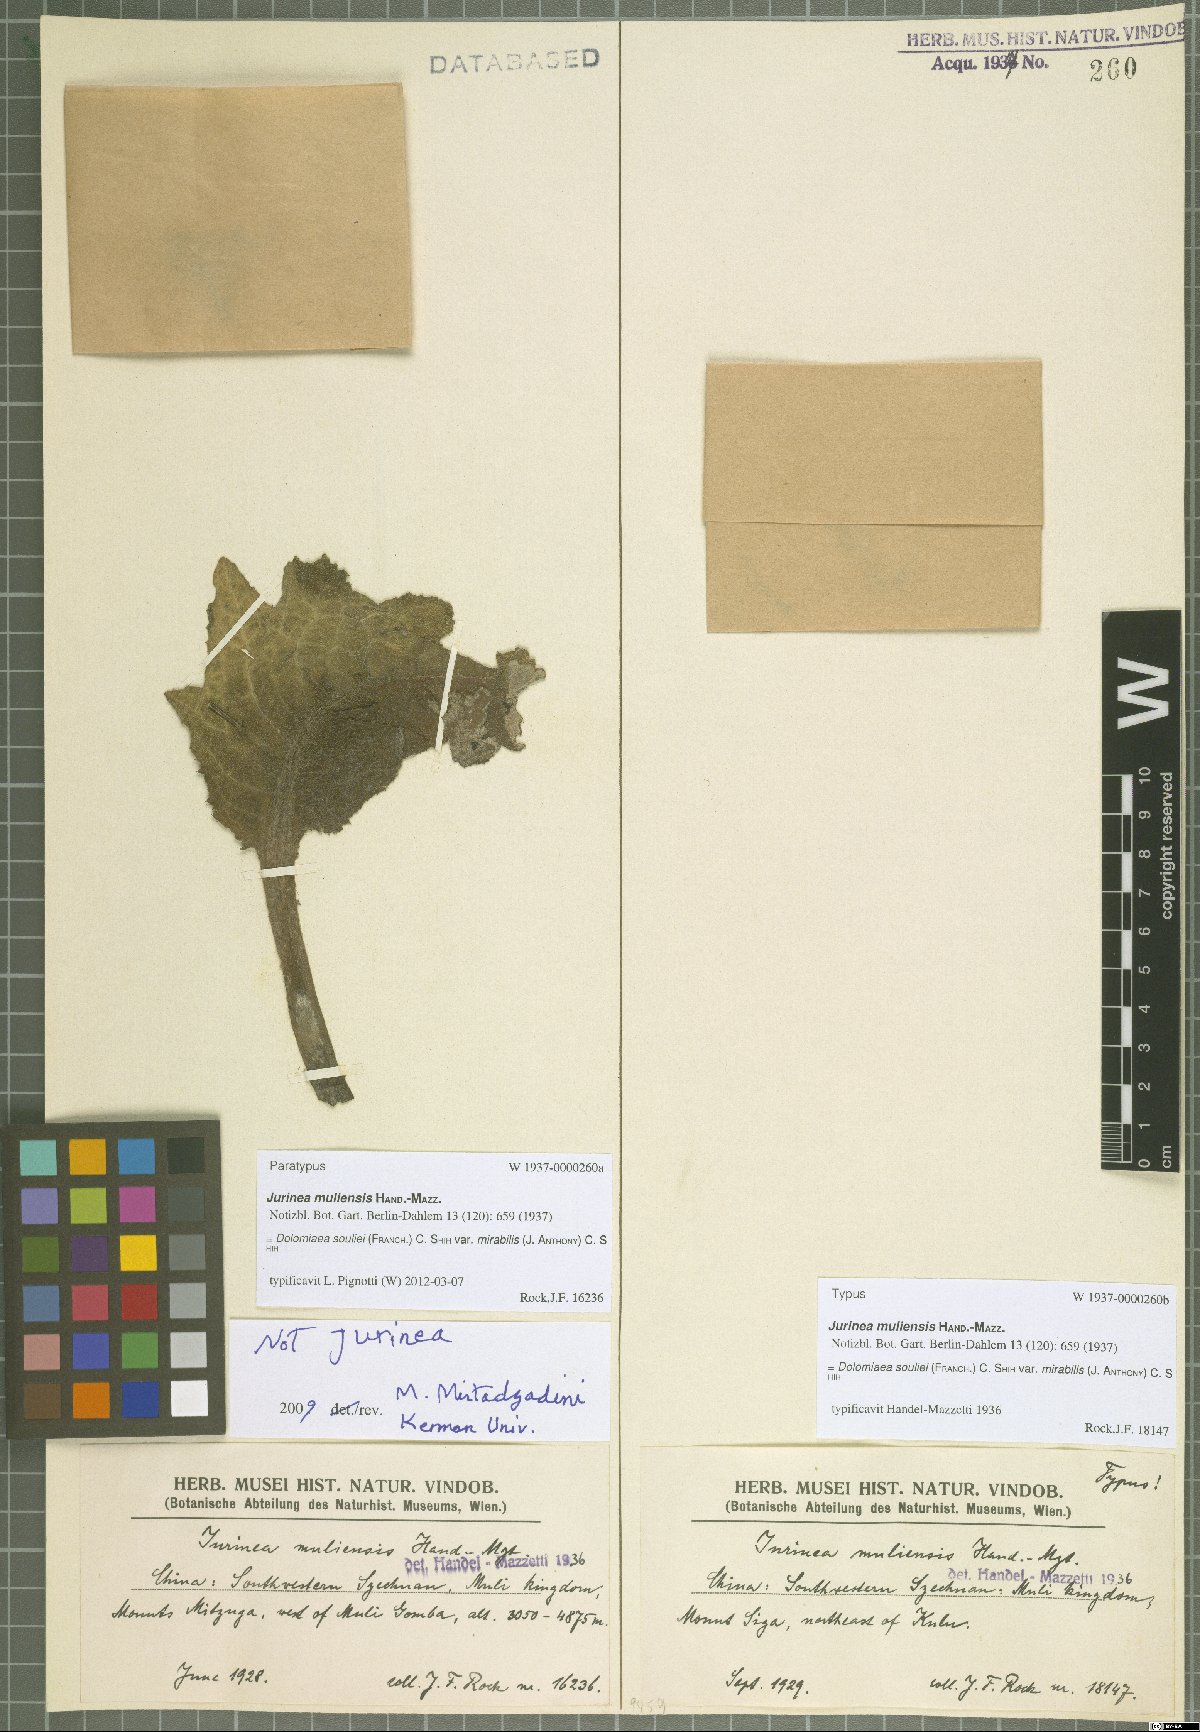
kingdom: Plantae
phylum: Tracheophyta
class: Magnoliopsida
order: Asterales
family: Asteraceae
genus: Dolomiaea
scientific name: Dolomiaea souliei
